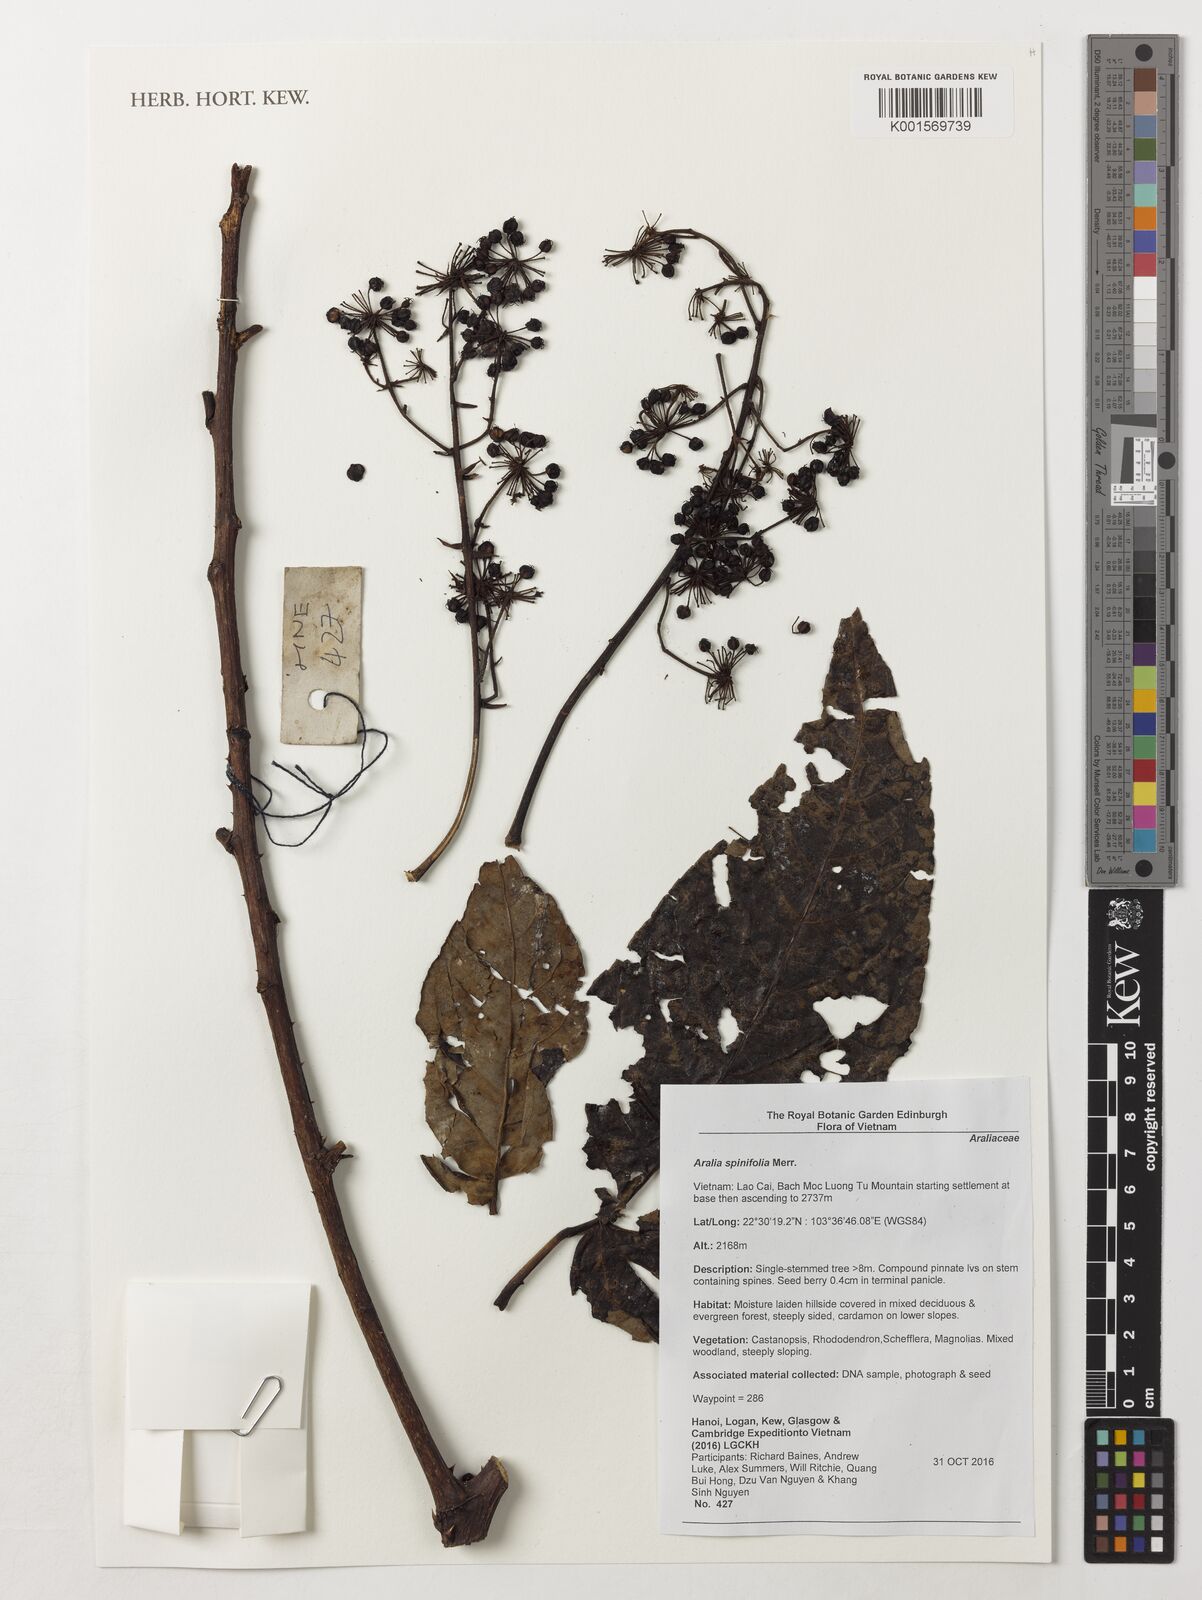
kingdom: Plantae
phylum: Tracheophyta
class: Magnoliopsida
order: Apiales
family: Araliaceae
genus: Aralia
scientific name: Aralia spinifolia
